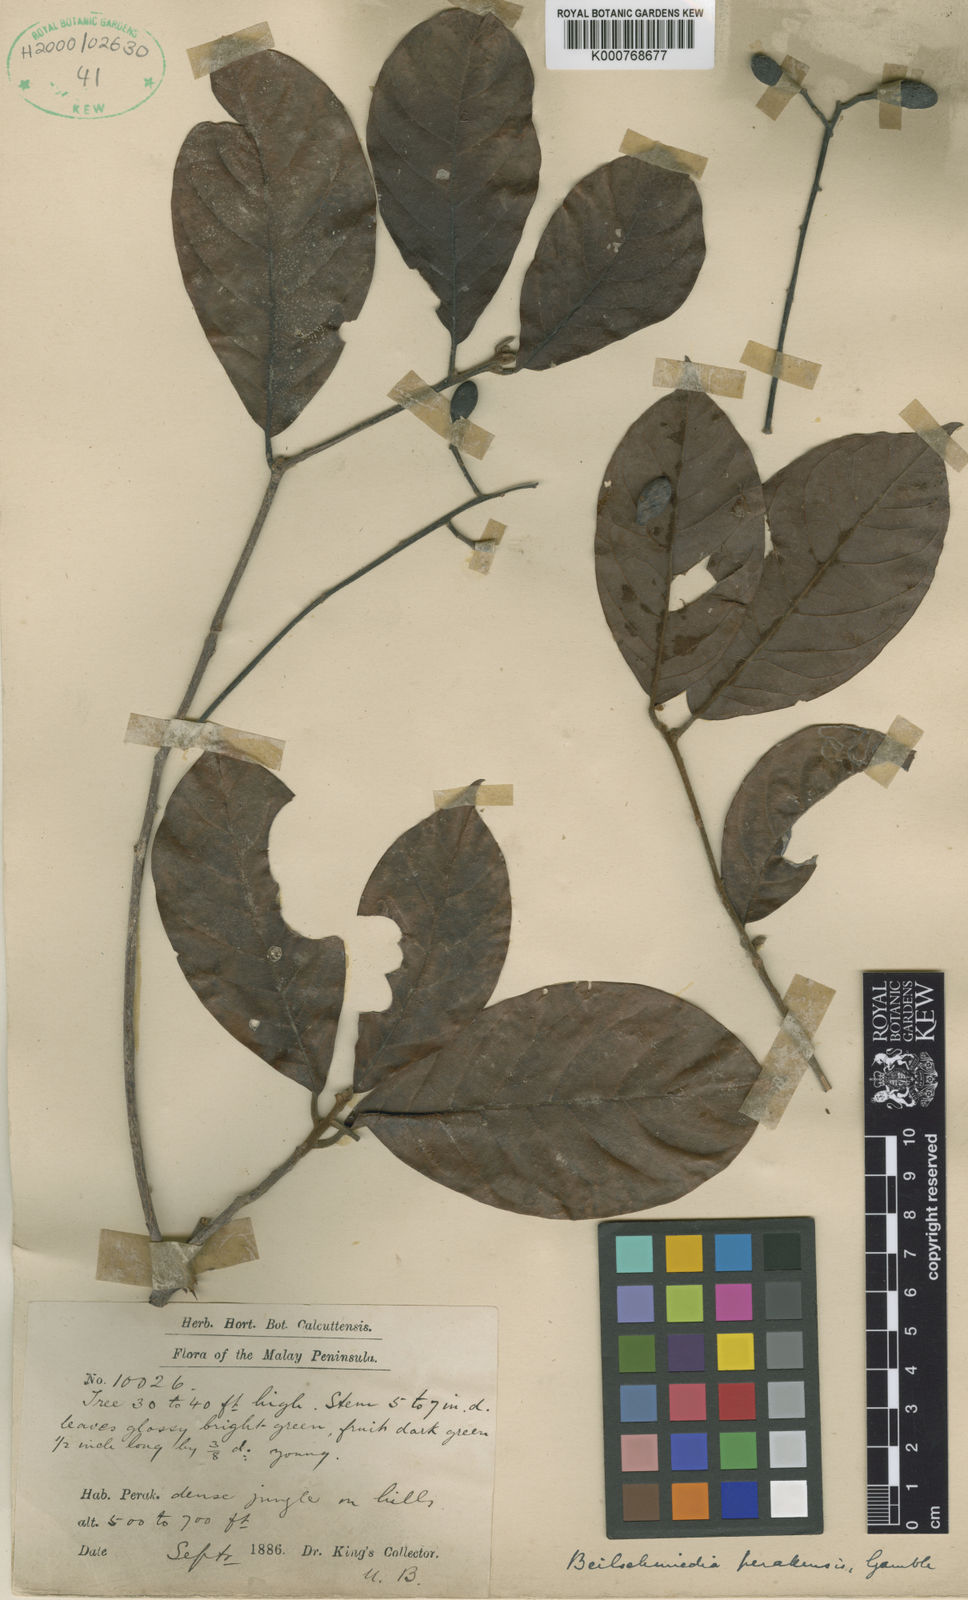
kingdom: Plantae
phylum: Tracheophyta
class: Magnoliopsida
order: Laurales
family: Lauraceae
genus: Beilschmiedia
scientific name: Beilschmiedia madang
